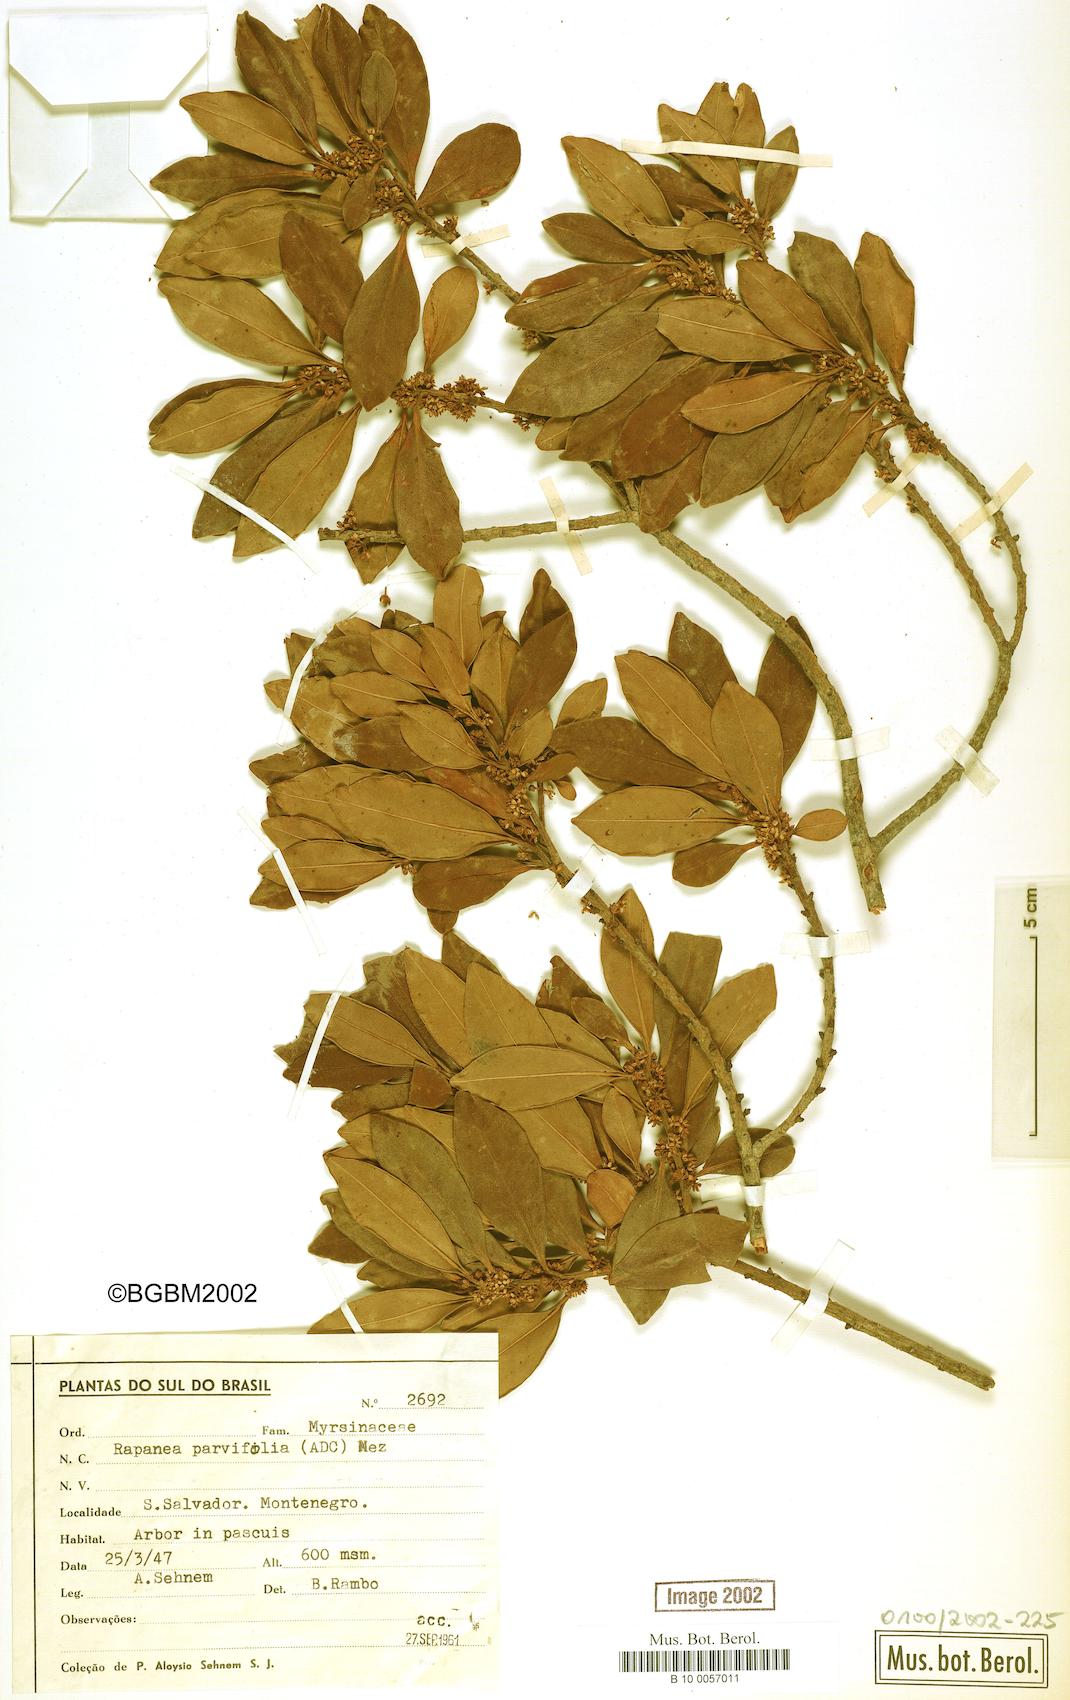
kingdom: Plantae
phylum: Tracheophyta
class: Magnoliopsida
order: Ericales
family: Primulaceae
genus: Myrsine
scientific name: Myrsine parvifolia
